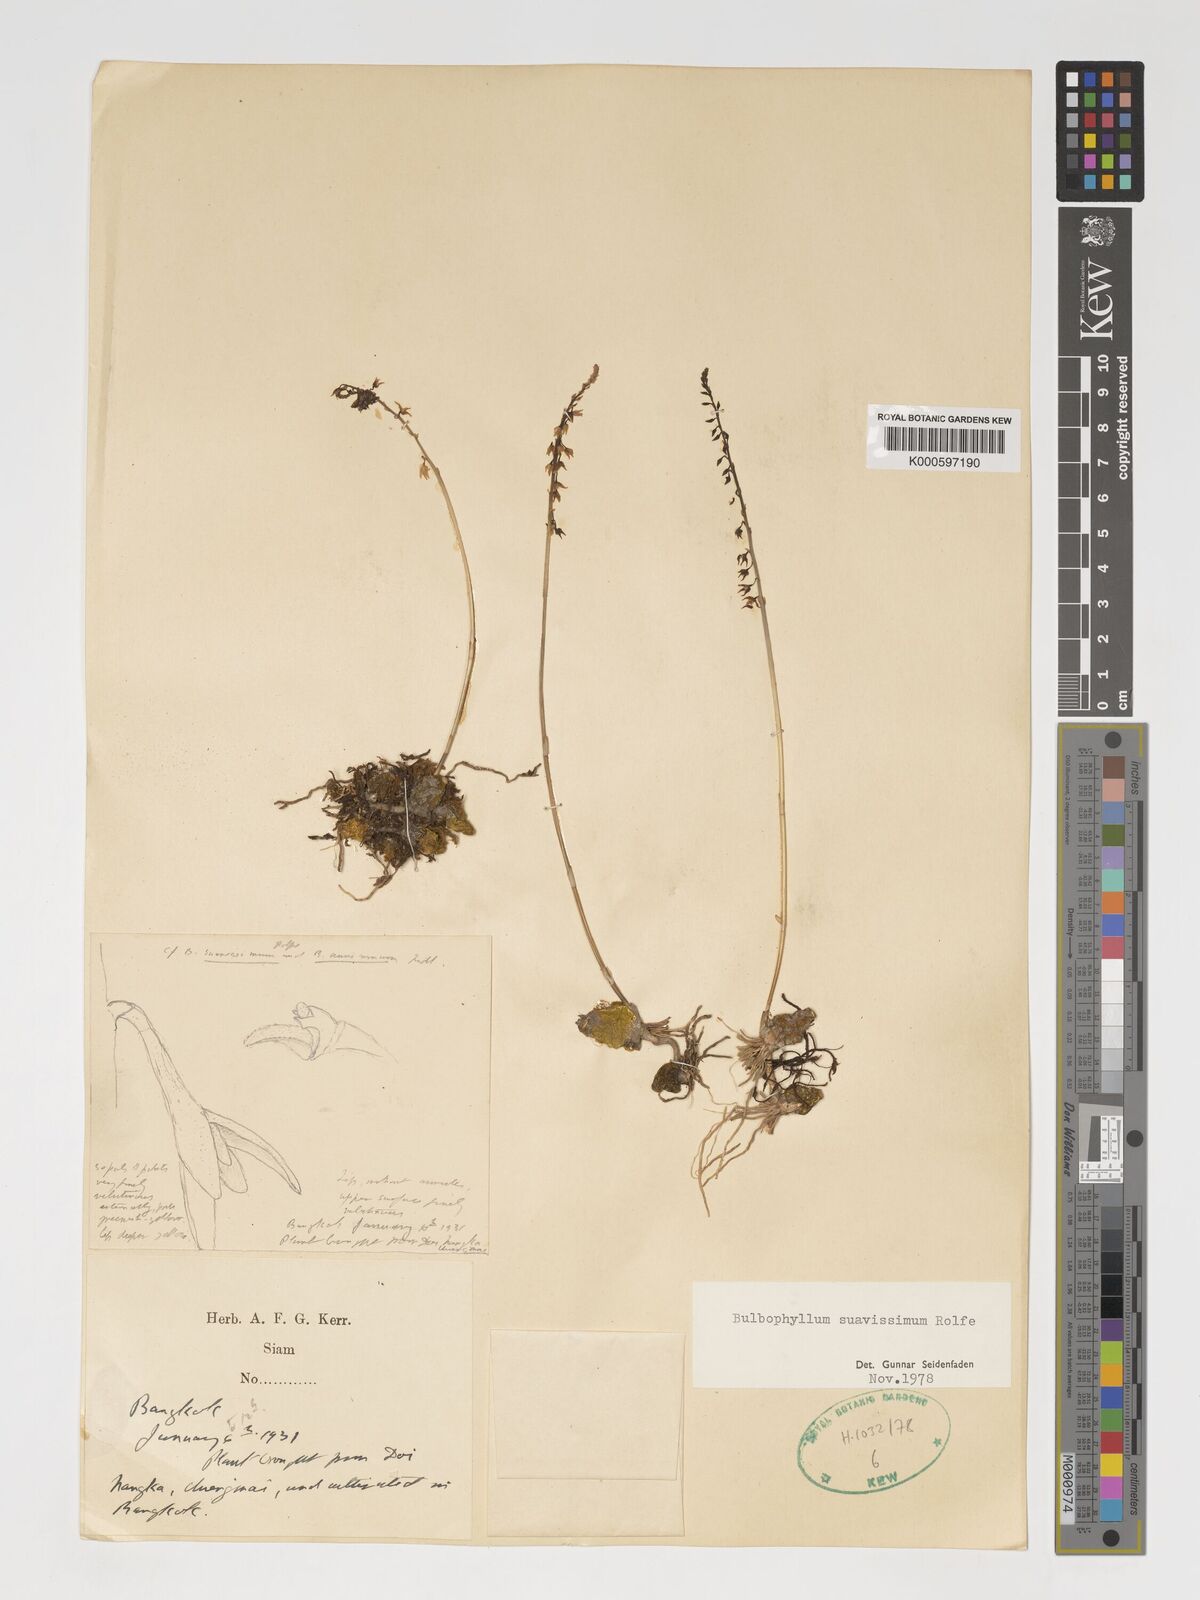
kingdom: Plantae
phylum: Tracheophyta
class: Liliopsida
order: Asparagales
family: Orchidaceae
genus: Bulbophyllum
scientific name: Bulbophyllum suavissimum
